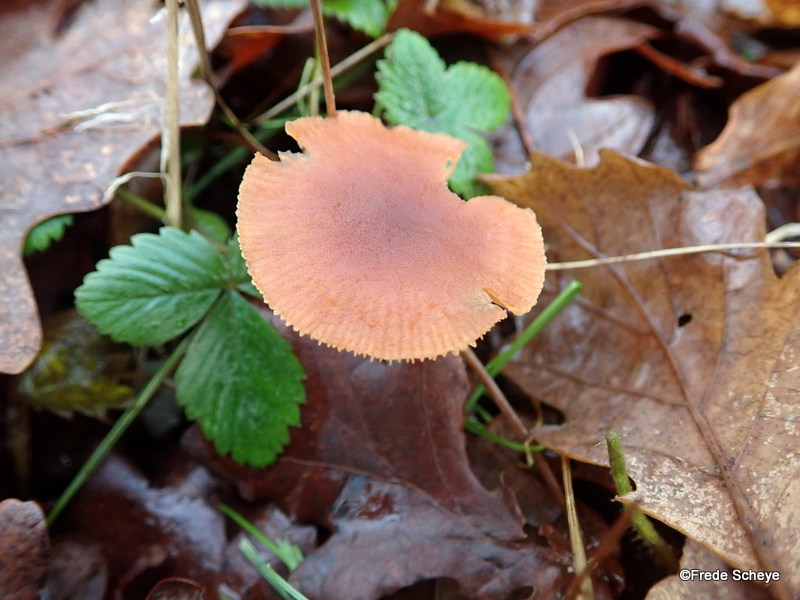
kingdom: Fungi
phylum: Basidiomycota
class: Agaricomycetes
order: Agaricales
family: Tubariaceae
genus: Tubaria
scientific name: Tubaria furfuracea
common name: kliddet fnughat
